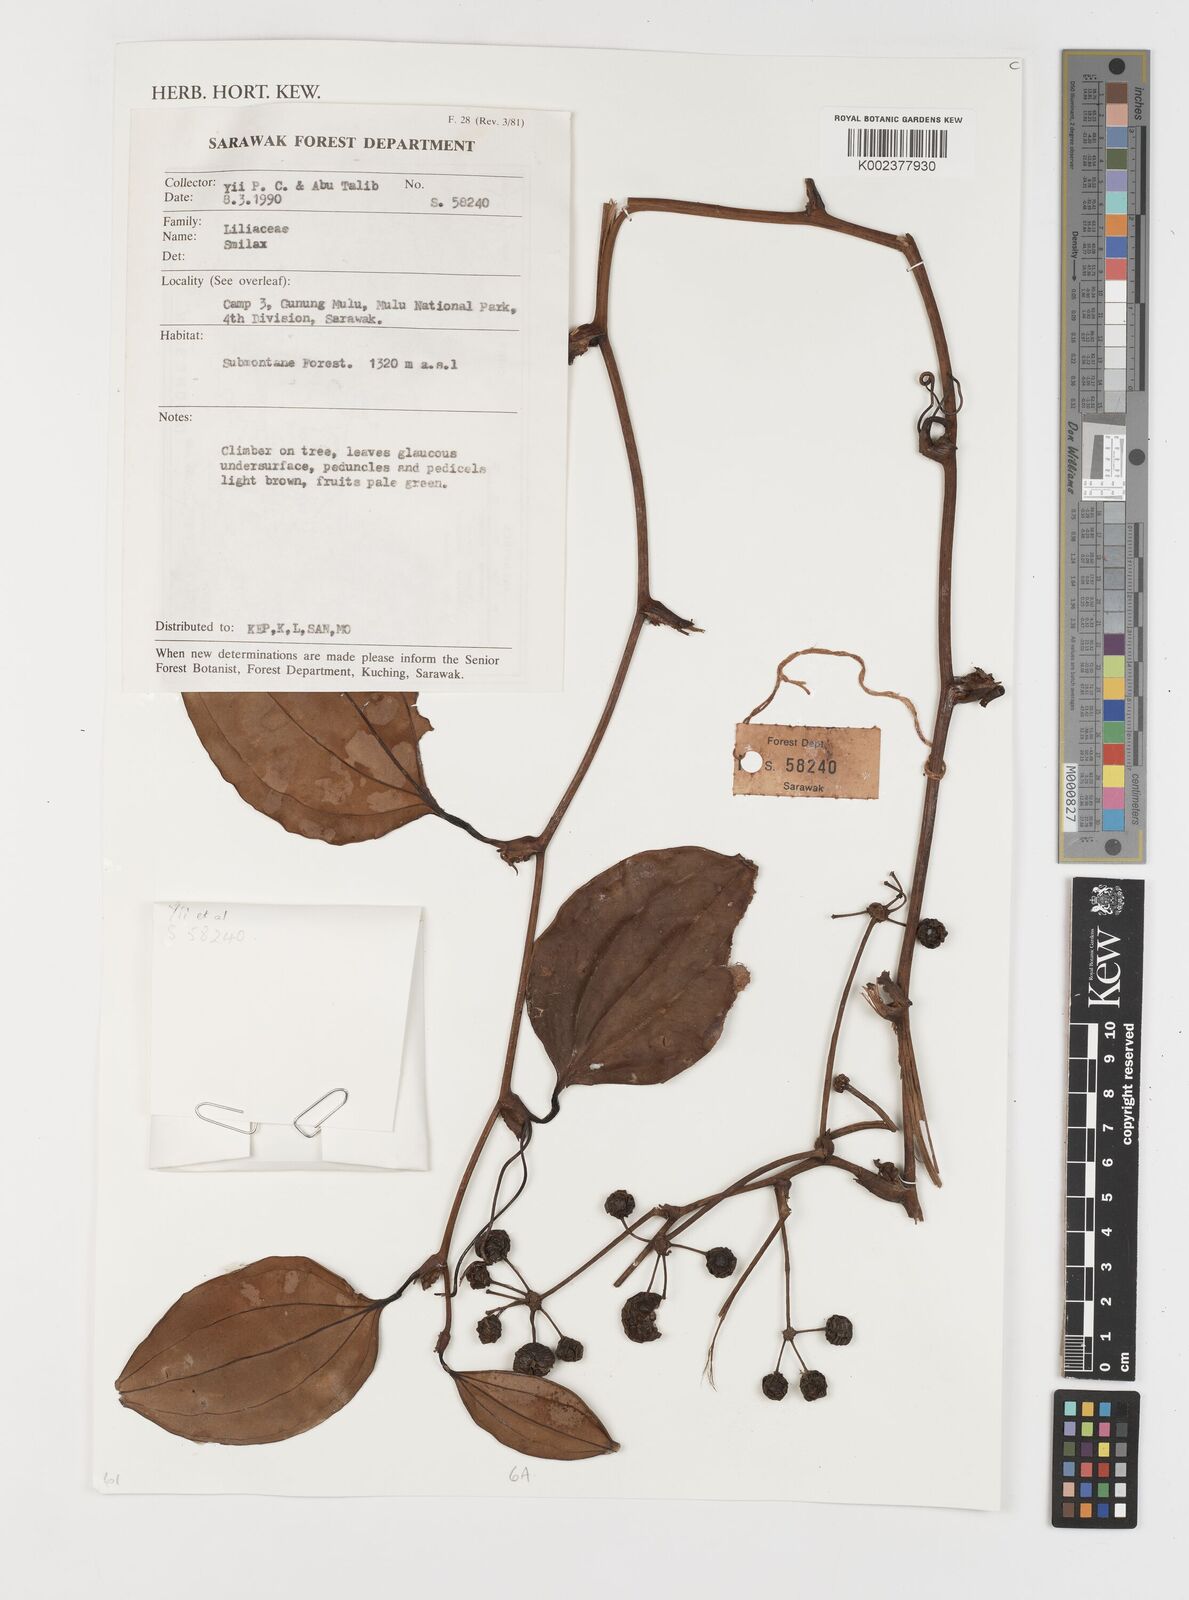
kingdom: Plantae
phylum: Tracheophyta
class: Liliopsida
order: Liliales
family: Smilacaceae
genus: Smilax
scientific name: Smilax
